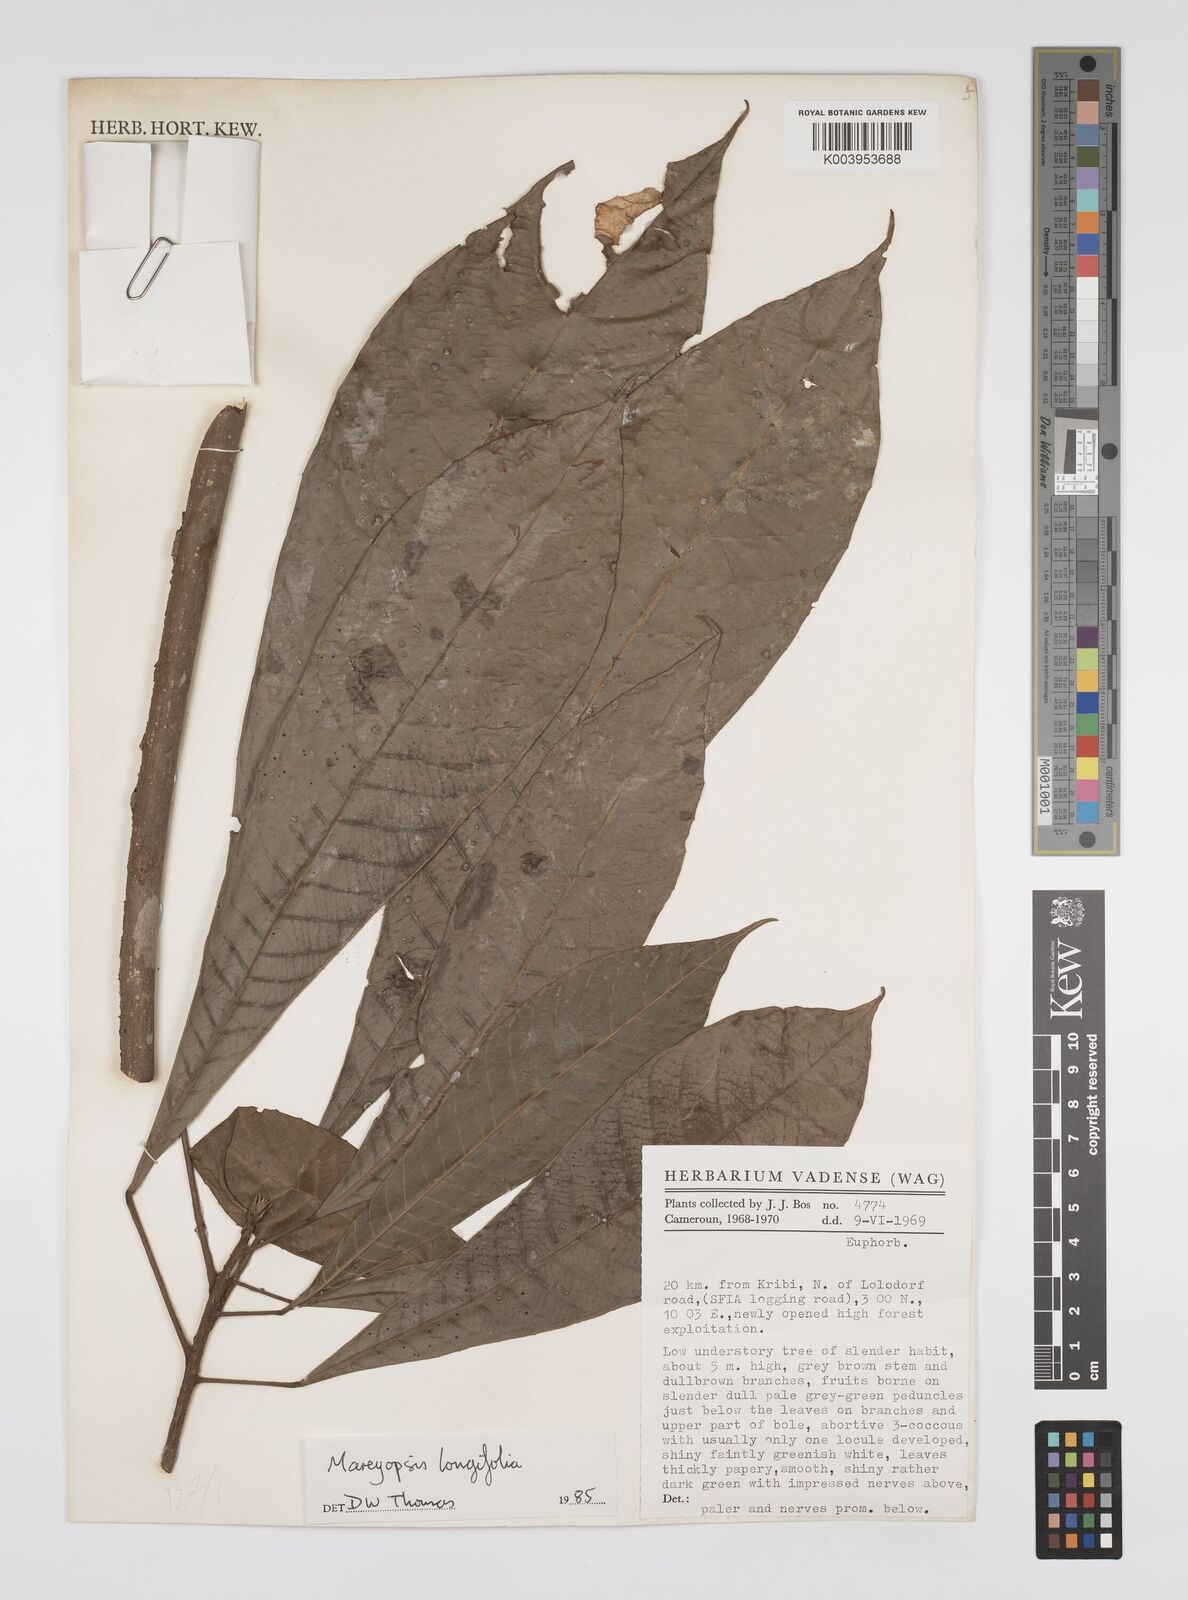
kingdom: Plantae
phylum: Tracheophyta
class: Magnoliopsida
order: Malpighiales
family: Euphorbiaceae
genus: Mareyopsis
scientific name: Mareyopsis longifolia
